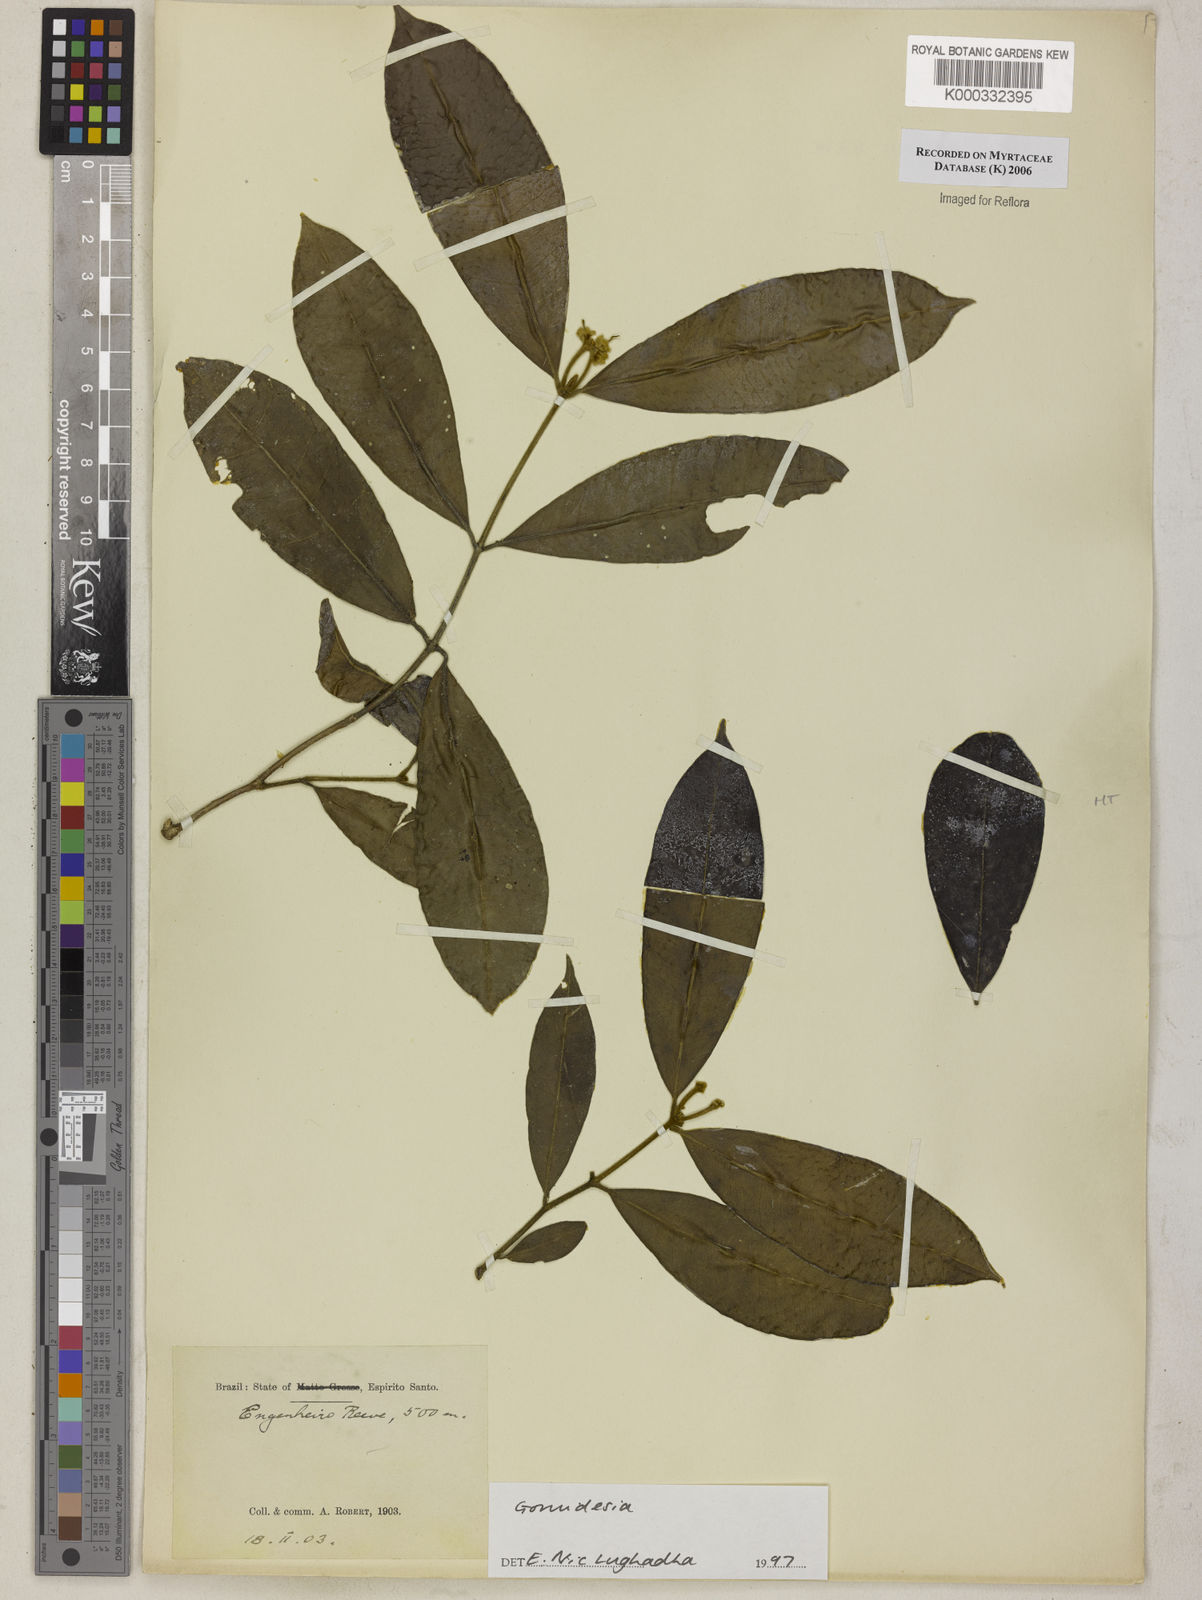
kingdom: Plantae
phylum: Tracheophyta
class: Magnoliopsida
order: Myrtales
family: Myrtaceae
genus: Myrcia
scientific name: Myrcia
